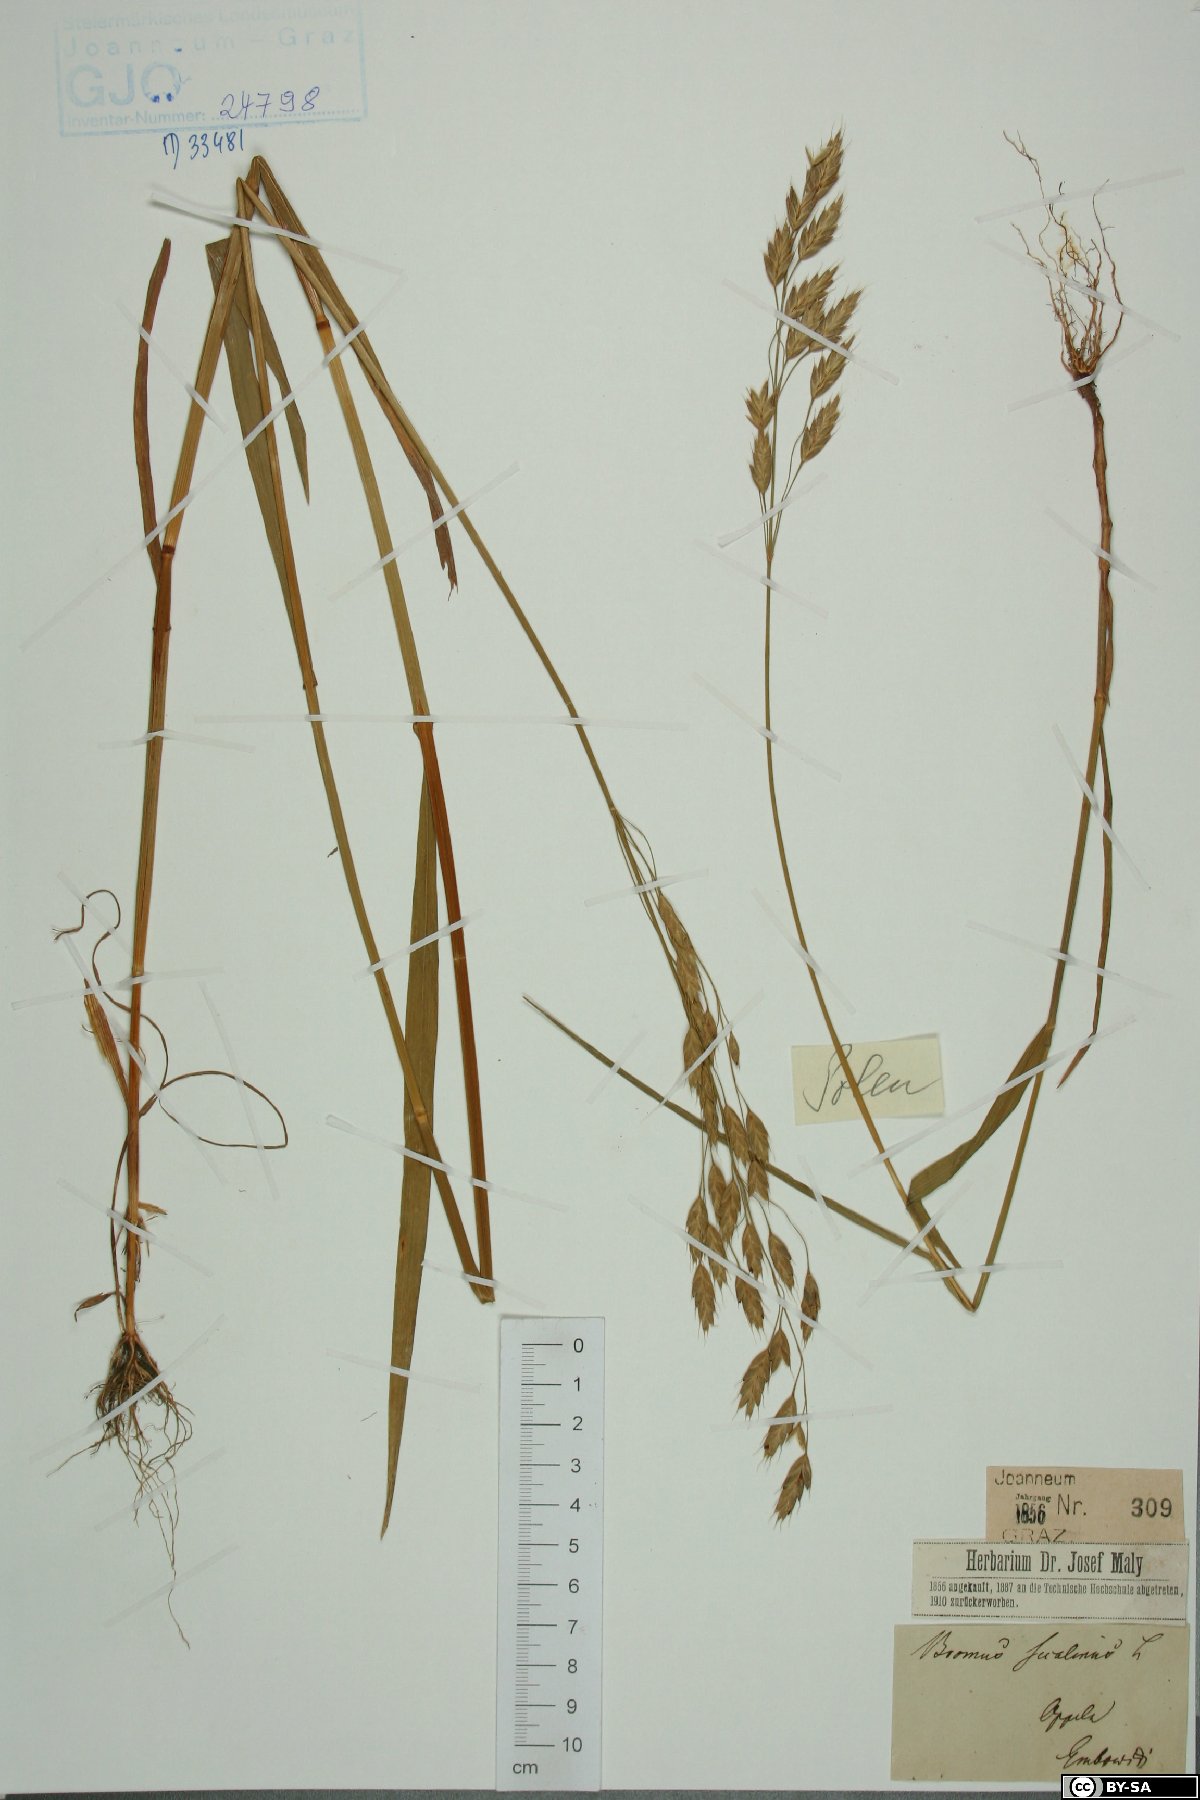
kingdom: Plantae
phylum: Tracheophyta
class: Liliopsida
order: Poales
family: Poaceae
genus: Bromus
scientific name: Bromus secalinus
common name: Rye brome
